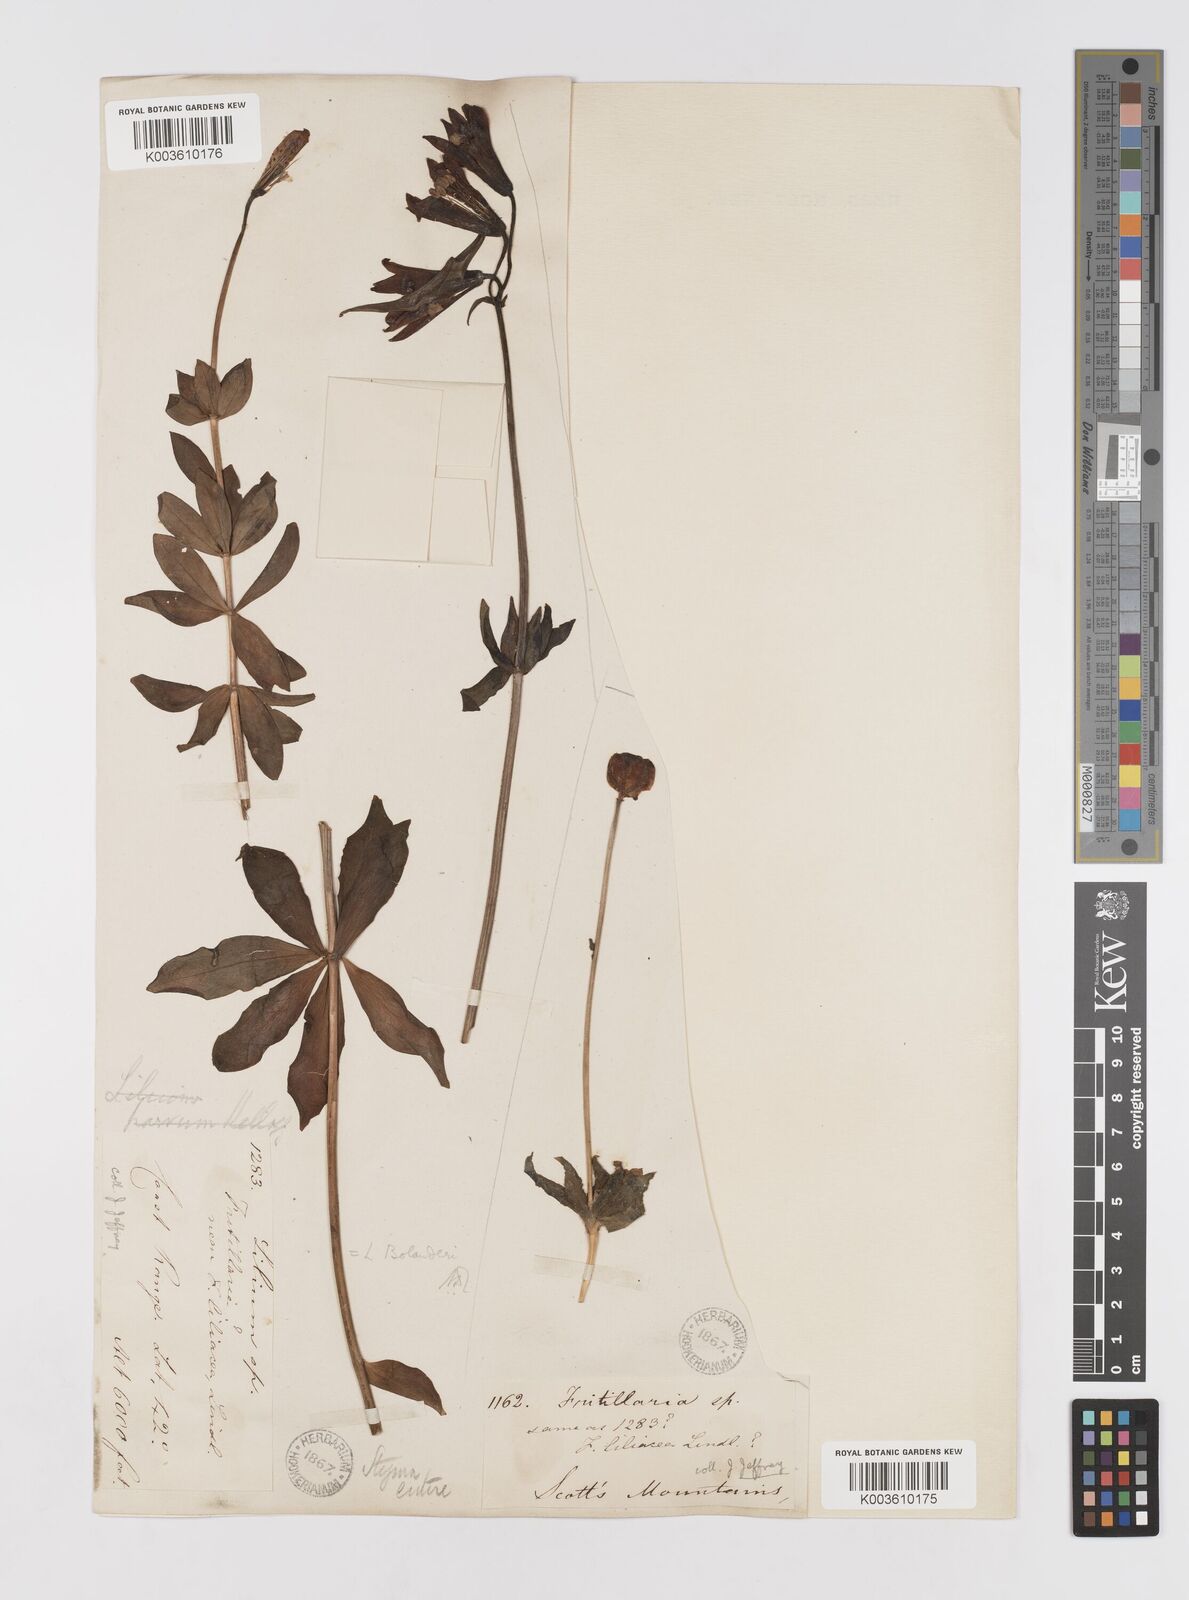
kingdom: Plantae
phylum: Tracheophyta
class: Liliopsida
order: Liliales
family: Liliaceae
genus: Lilium
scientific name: Lilium bolanderi
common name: Bolander's lily
